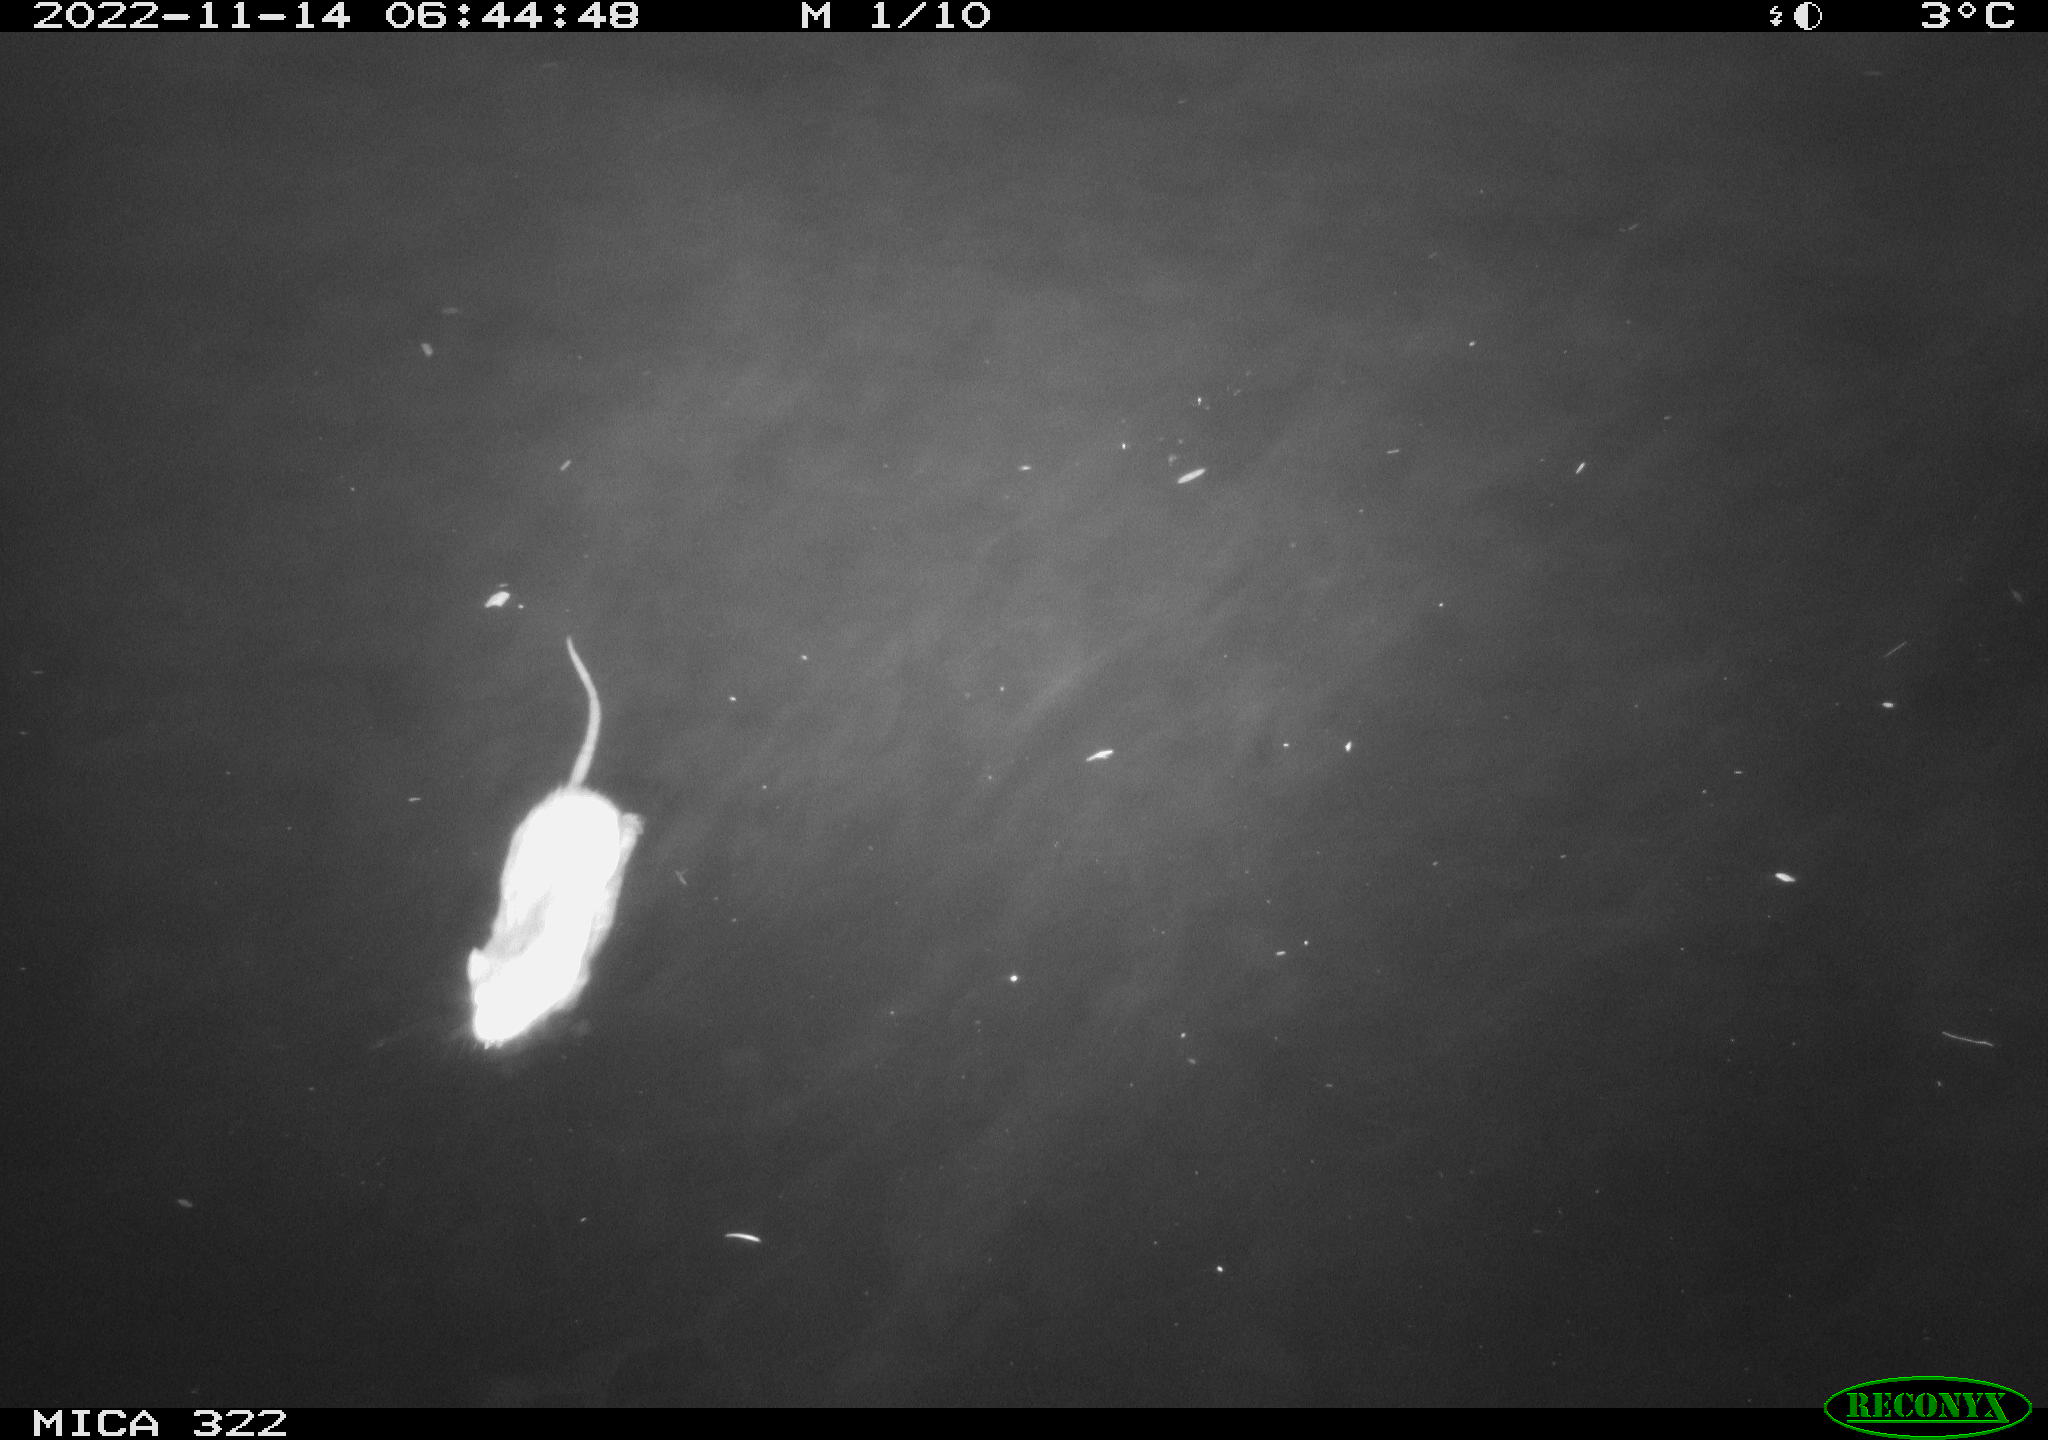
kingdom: Animalia
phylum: Chordata
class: Mammalia
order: Rodentia
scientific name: Rodentia
